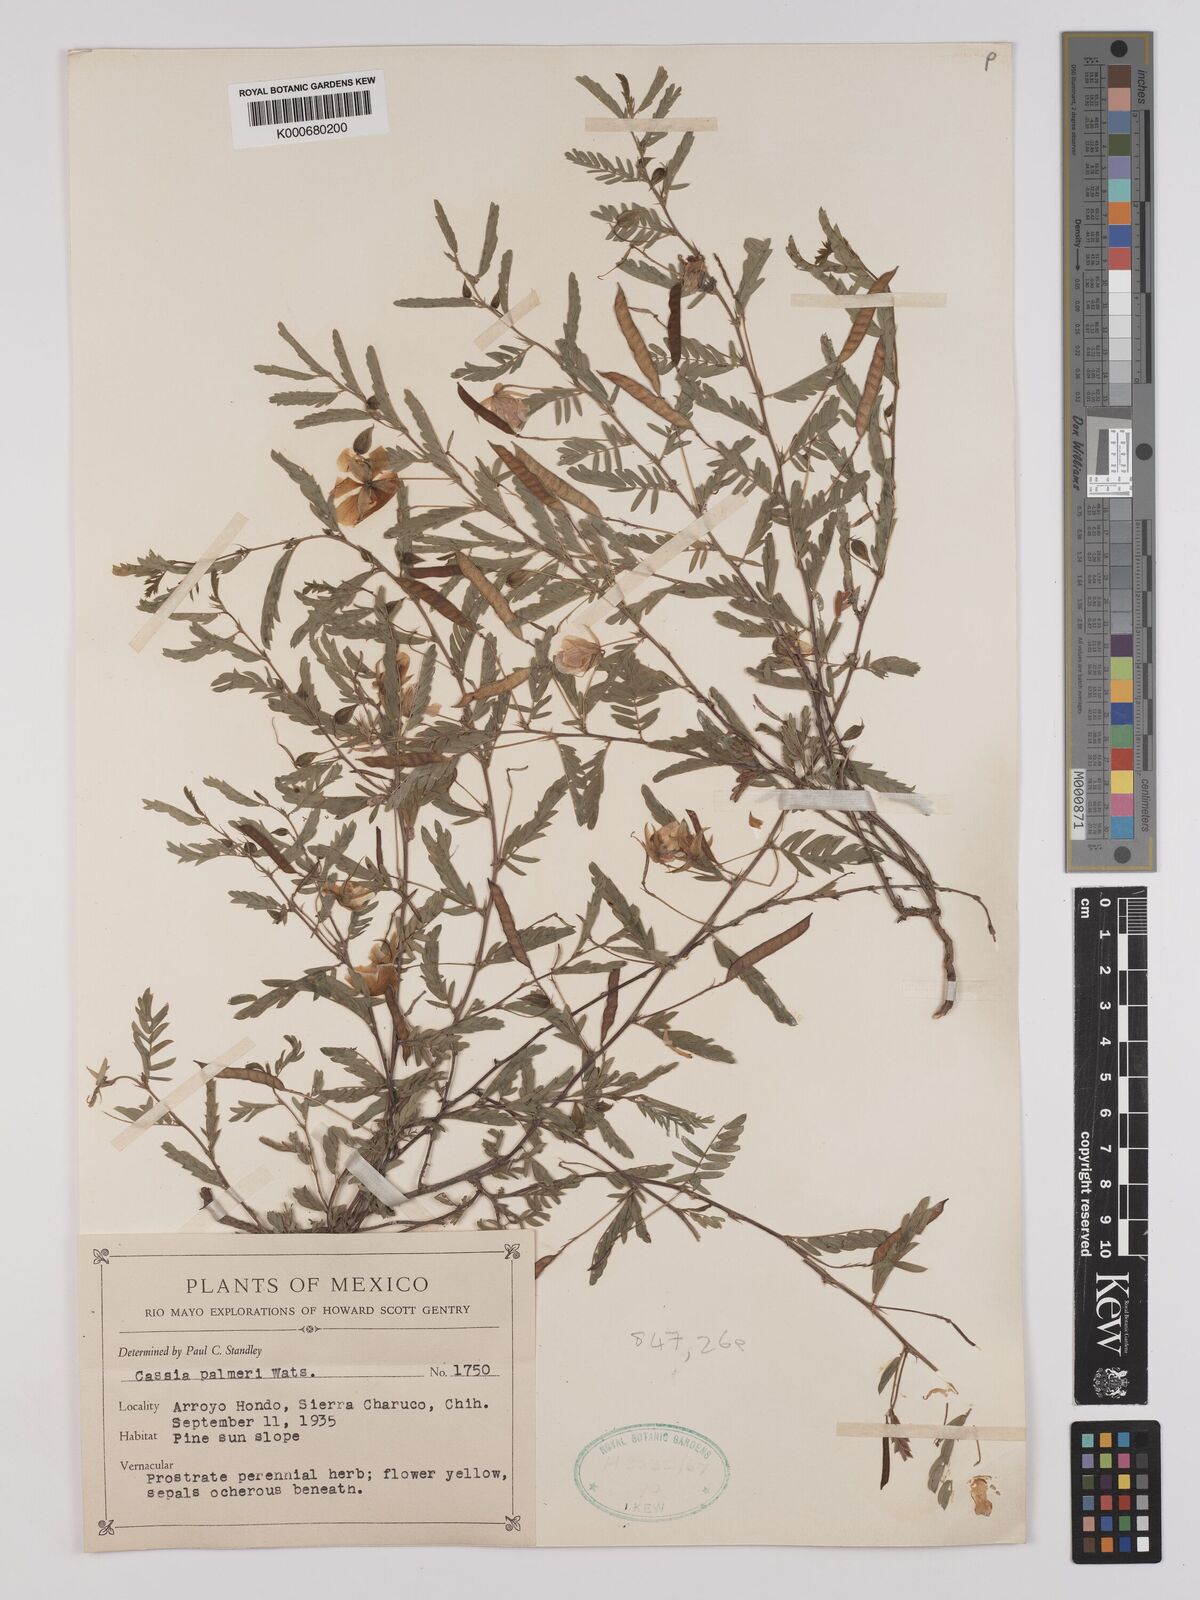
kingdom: Plantae
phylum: Tracheophyta
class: Magnoliopsida
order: Fabales
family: Fabaceae
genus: Chamaecrista
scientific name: Chamaecrista serpens
